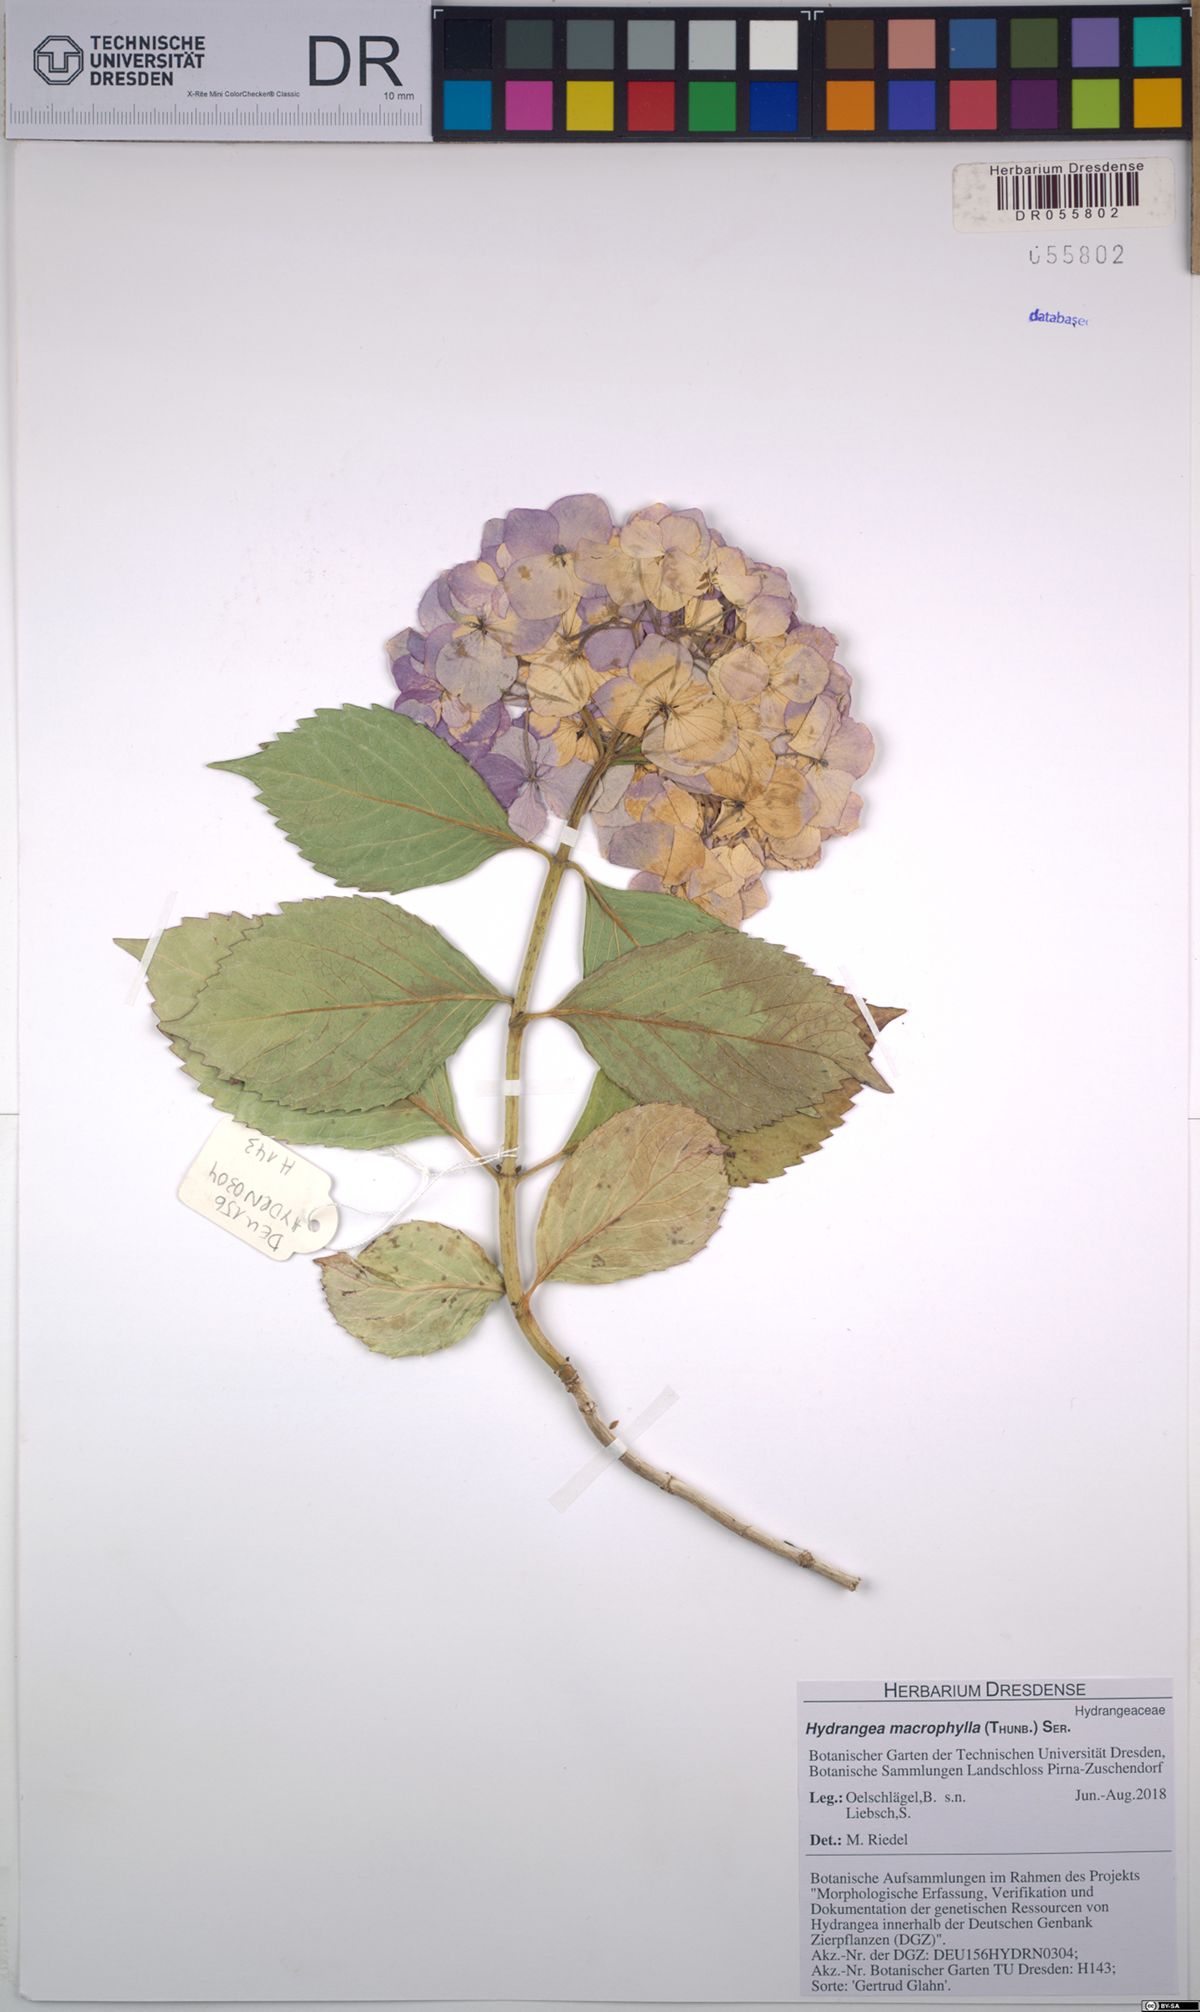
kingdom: Plantae
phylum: Tracheophyta
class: Magnoliopsida
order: Cornales
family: Hydrangeaceae
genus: Hydrangea
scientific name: Hydrangea macrophylla
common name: Hydrangea
